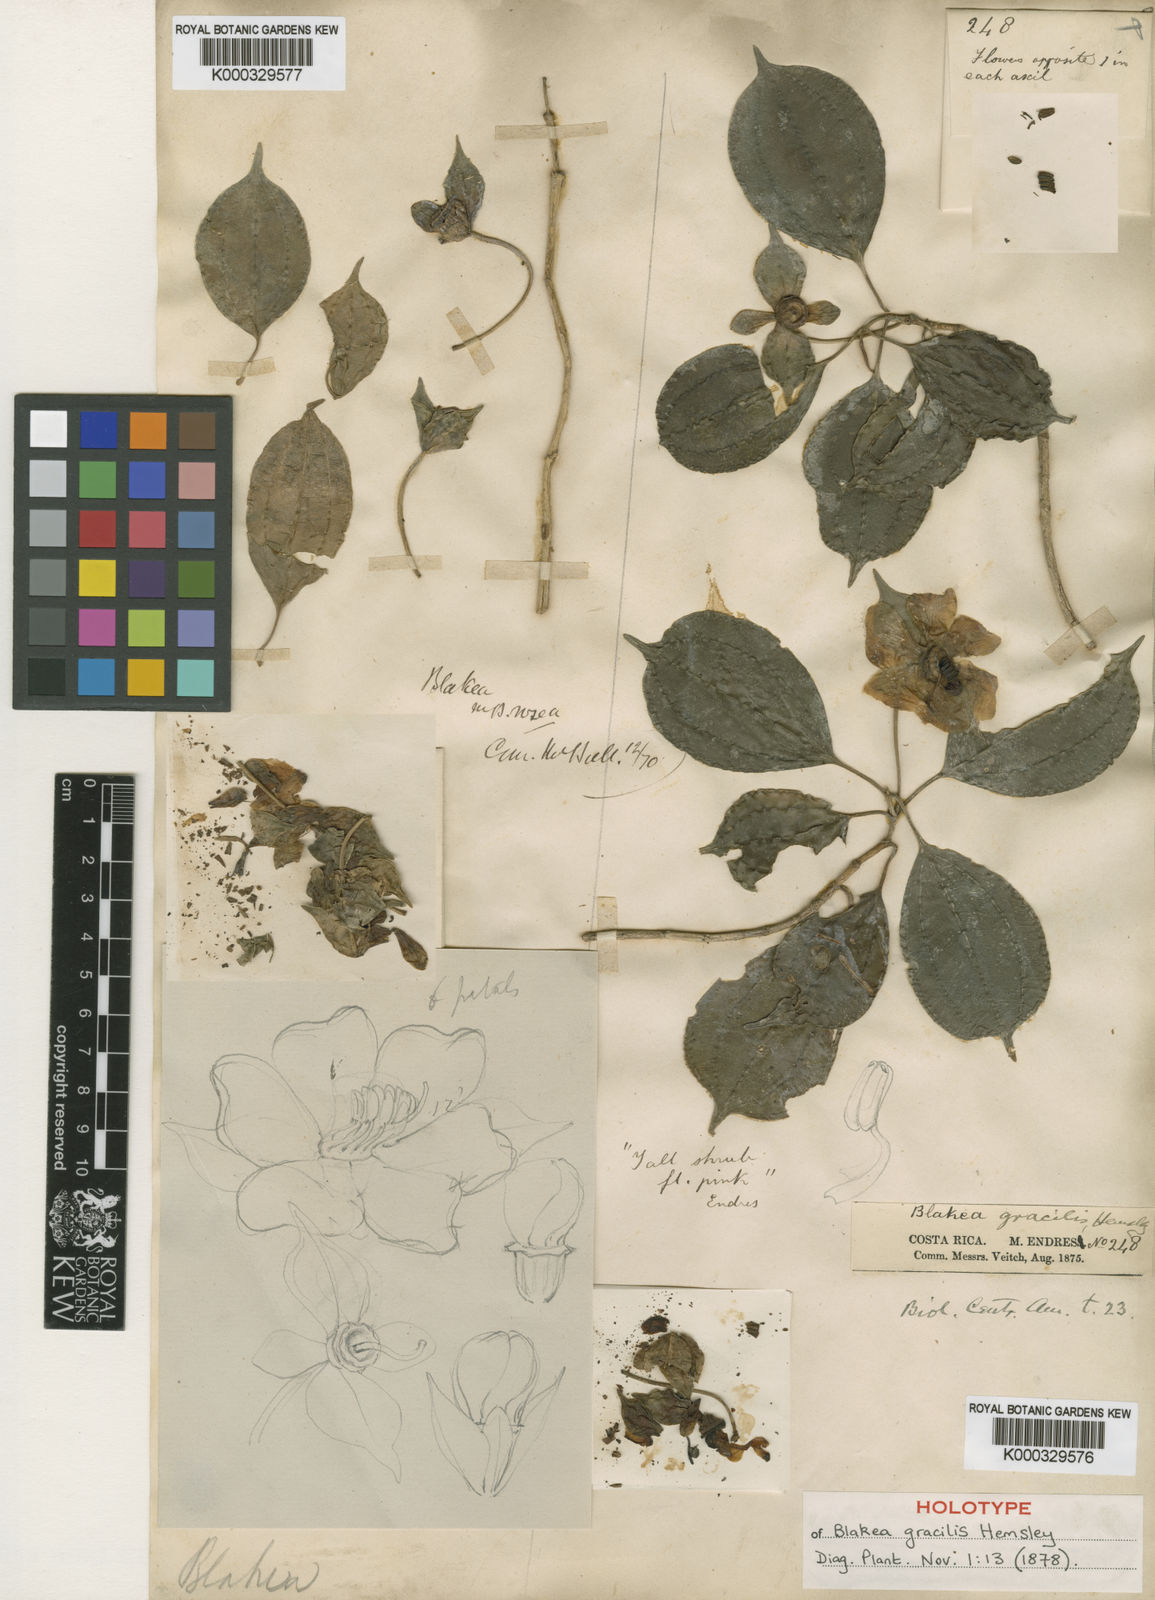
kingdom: Plantae
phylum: Tracheophyta
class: Magnoliopsida
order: Myrtales
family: Melastomataceae
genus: Blakea
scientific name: Blakea gracilis
